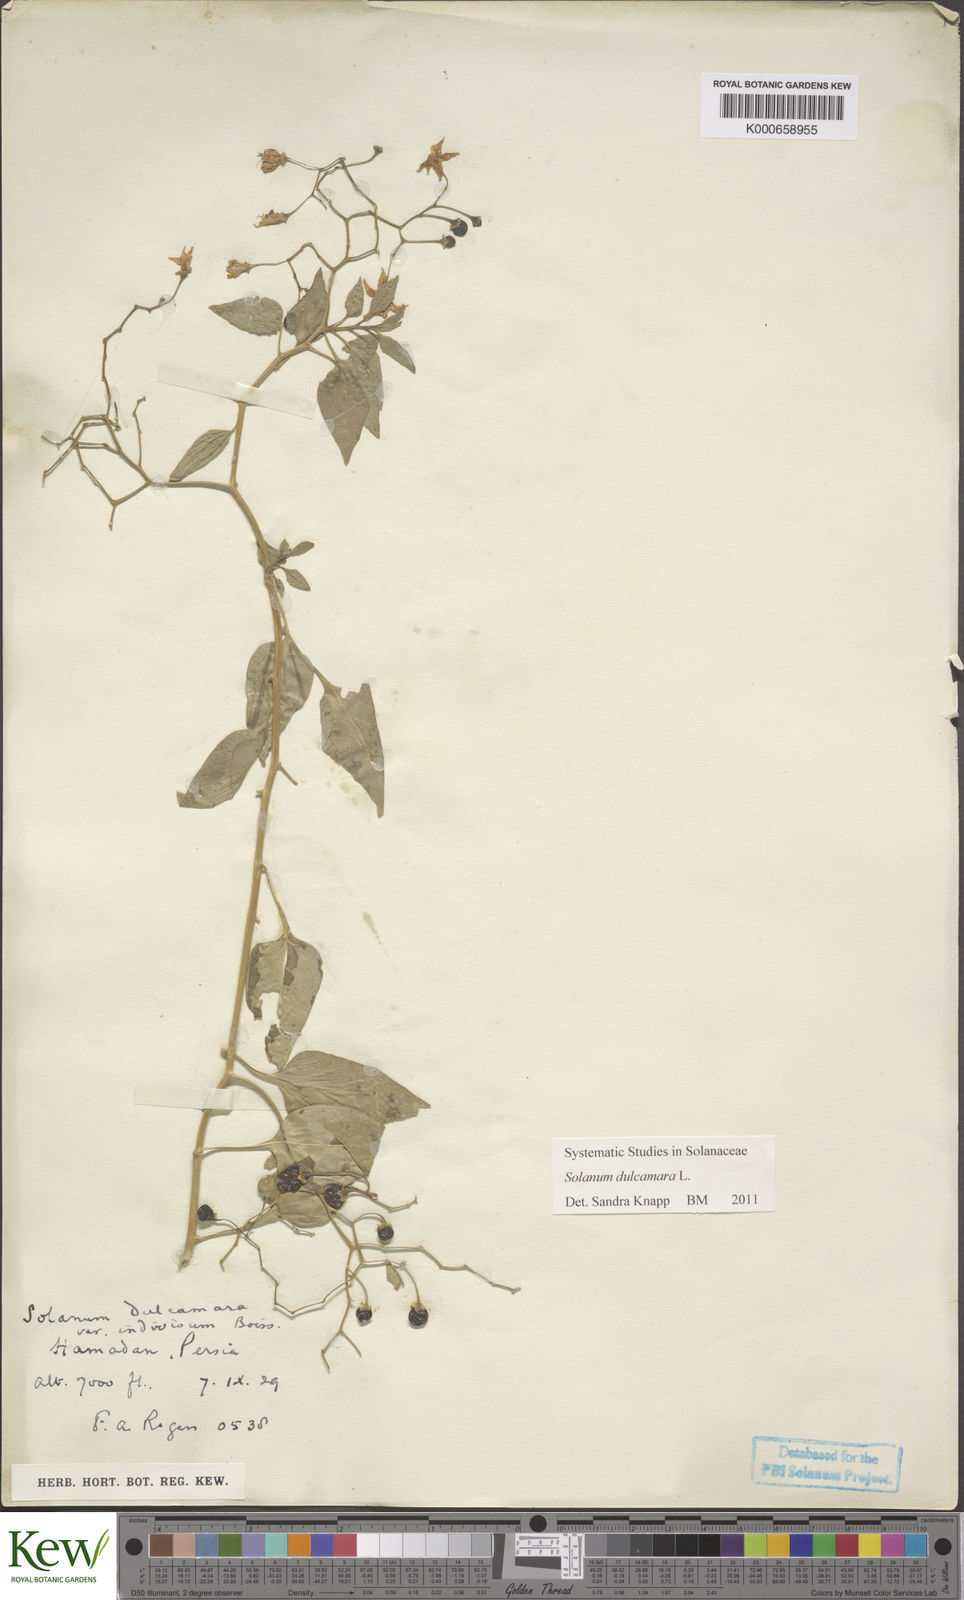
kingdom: Plantae
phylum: Tracheophyta
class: Magnoliopsida
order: Solanales
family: Solanaceae
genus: Solanum
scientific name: Solanum dulcamara
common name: Climbing nightshade
